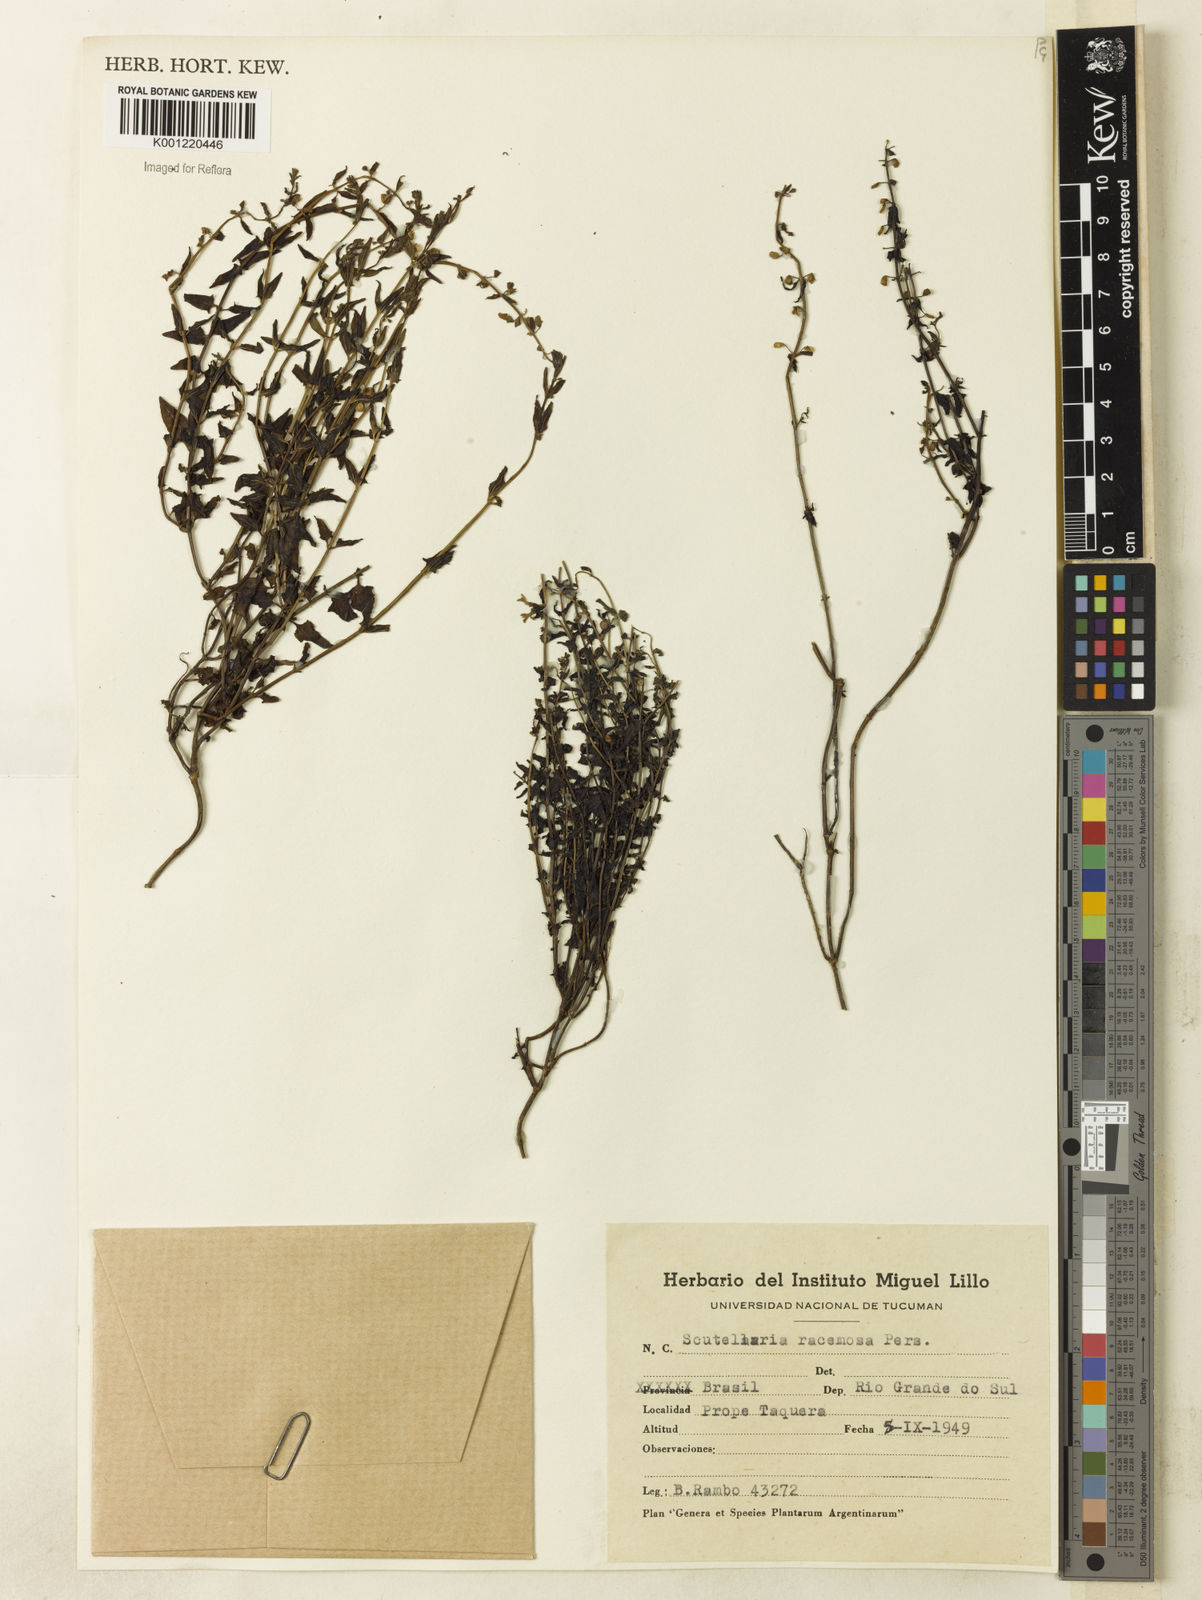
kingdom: Plantae
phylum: Tracheophyta
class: Magnoliopsida
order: Lamiales
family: Lamiaceae
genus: Scutellaria
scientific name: Scutellaria racemosa
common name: South american skullcap
